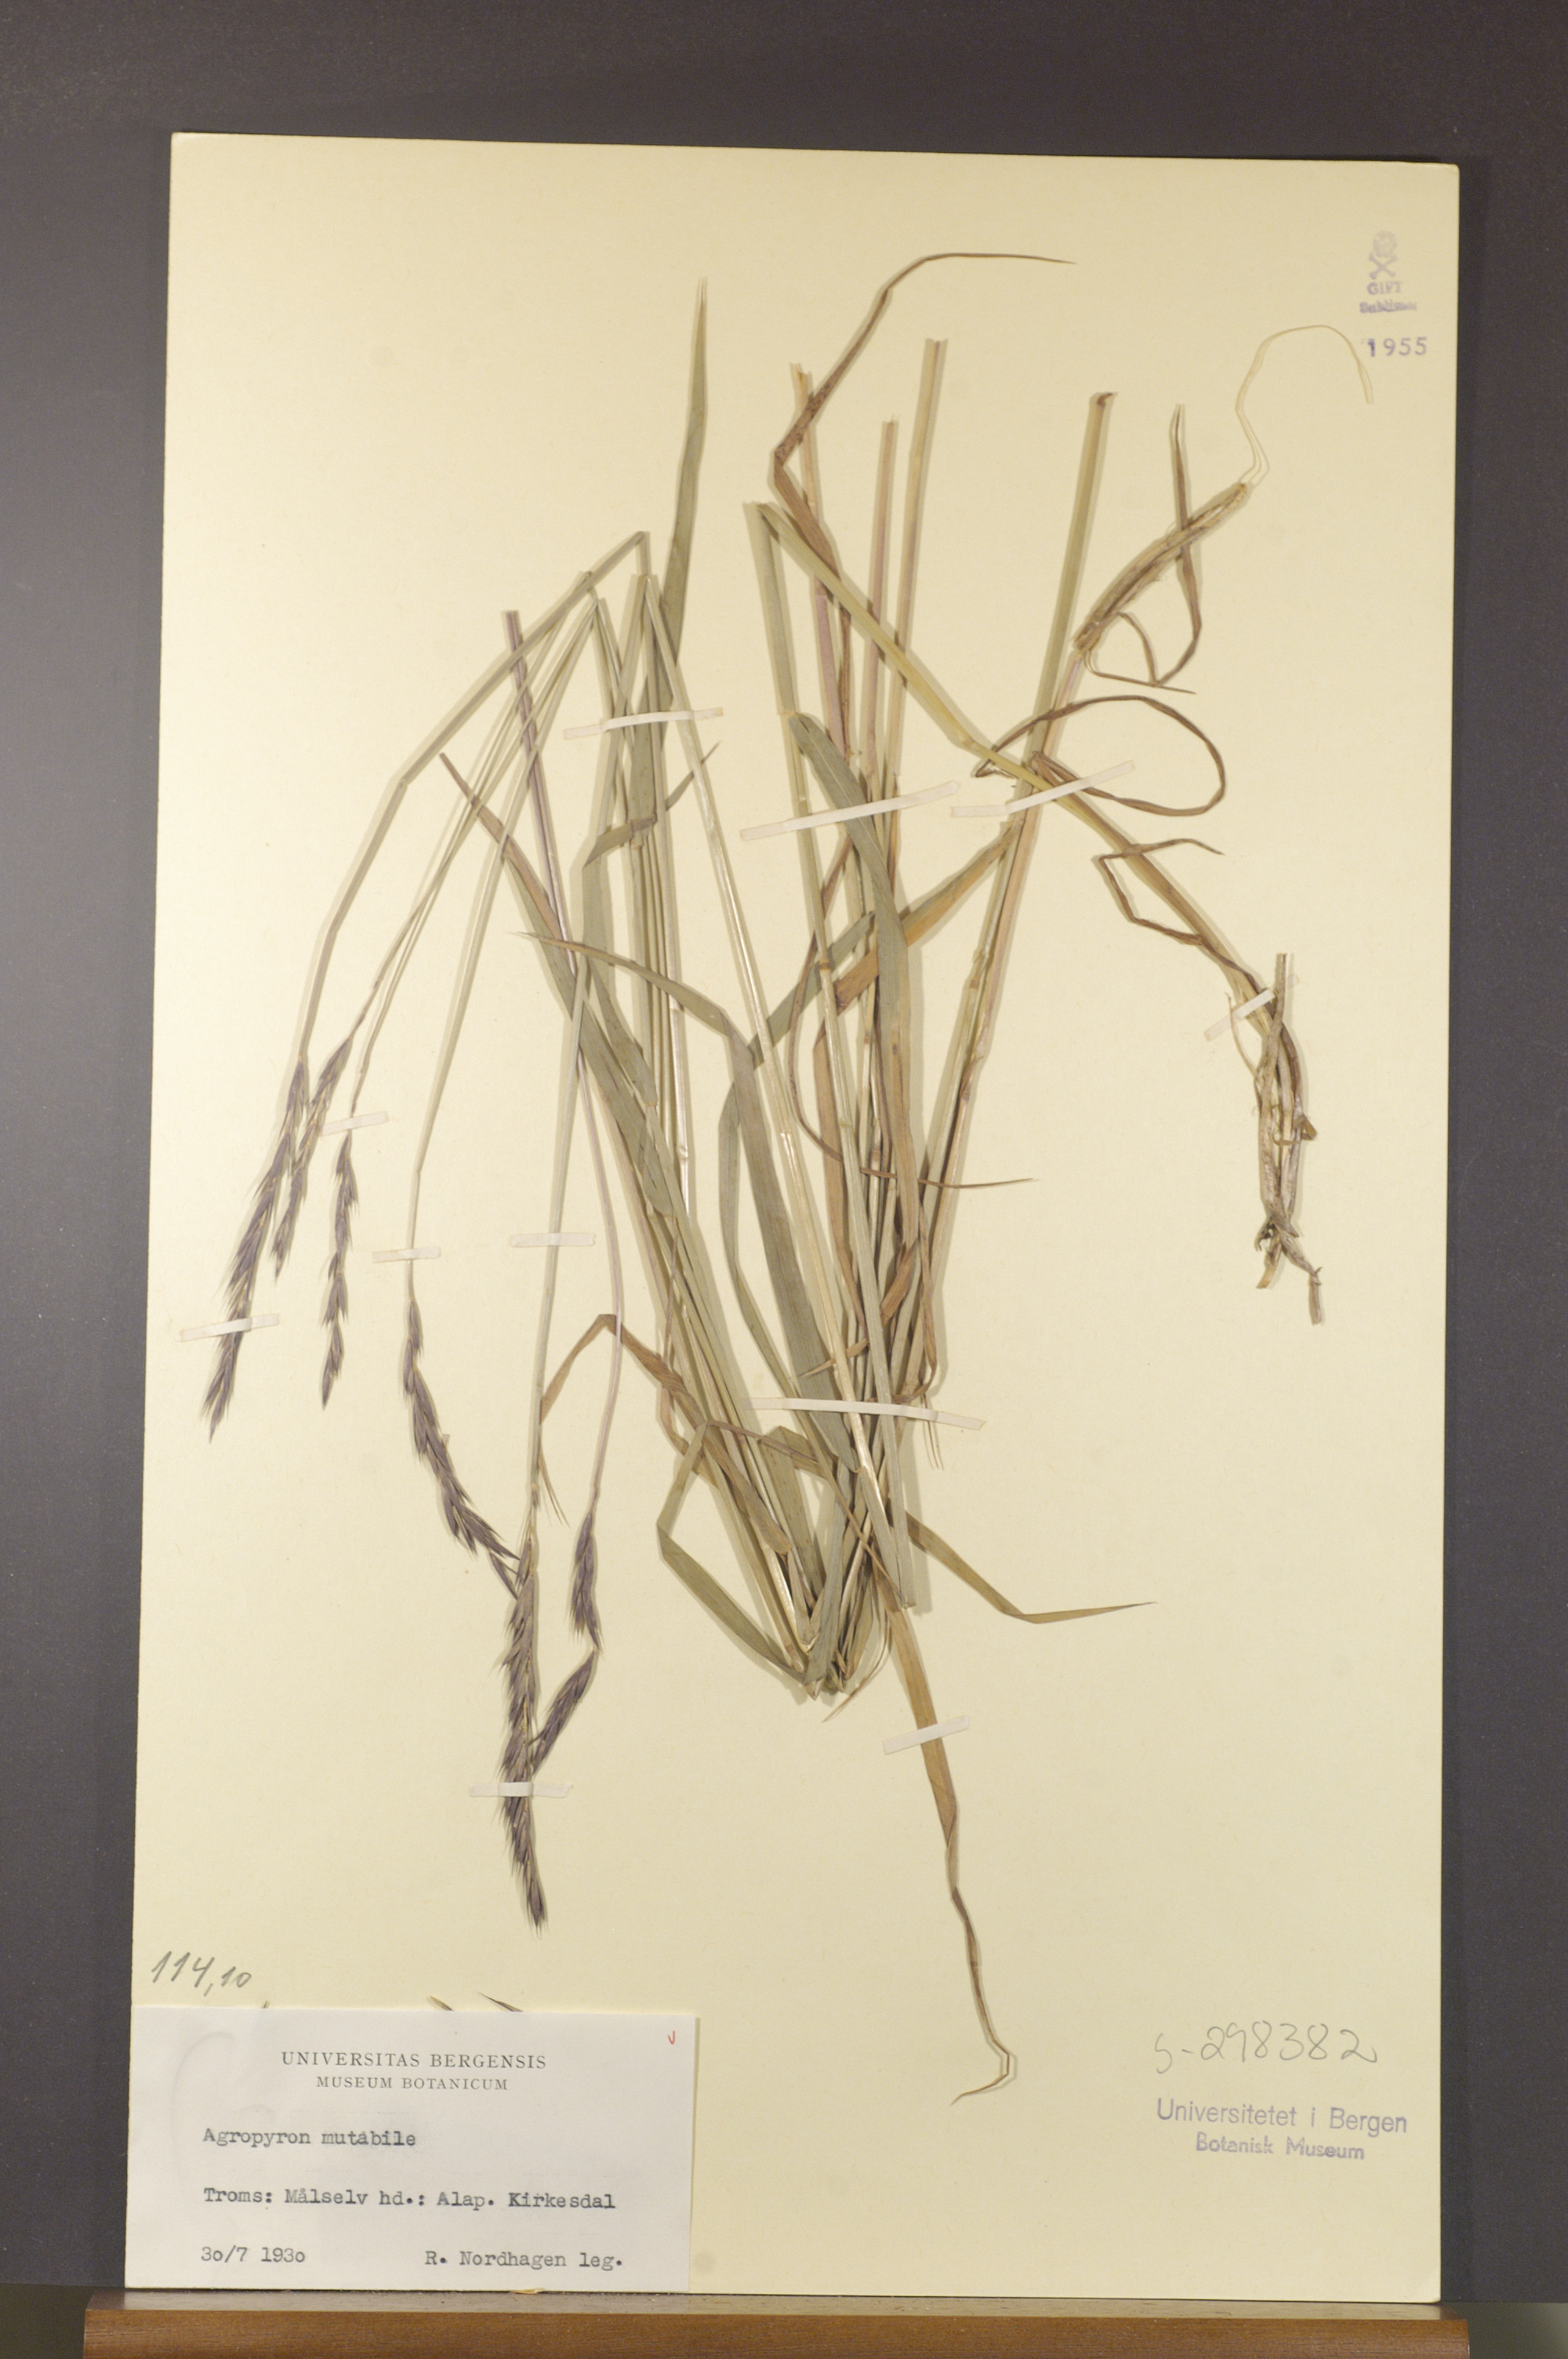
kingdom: Plantae
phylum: Tracheophyta
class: Liliopsida
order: Poales
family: Poaceae
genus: Elymus
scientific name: Elymus mutabilis
